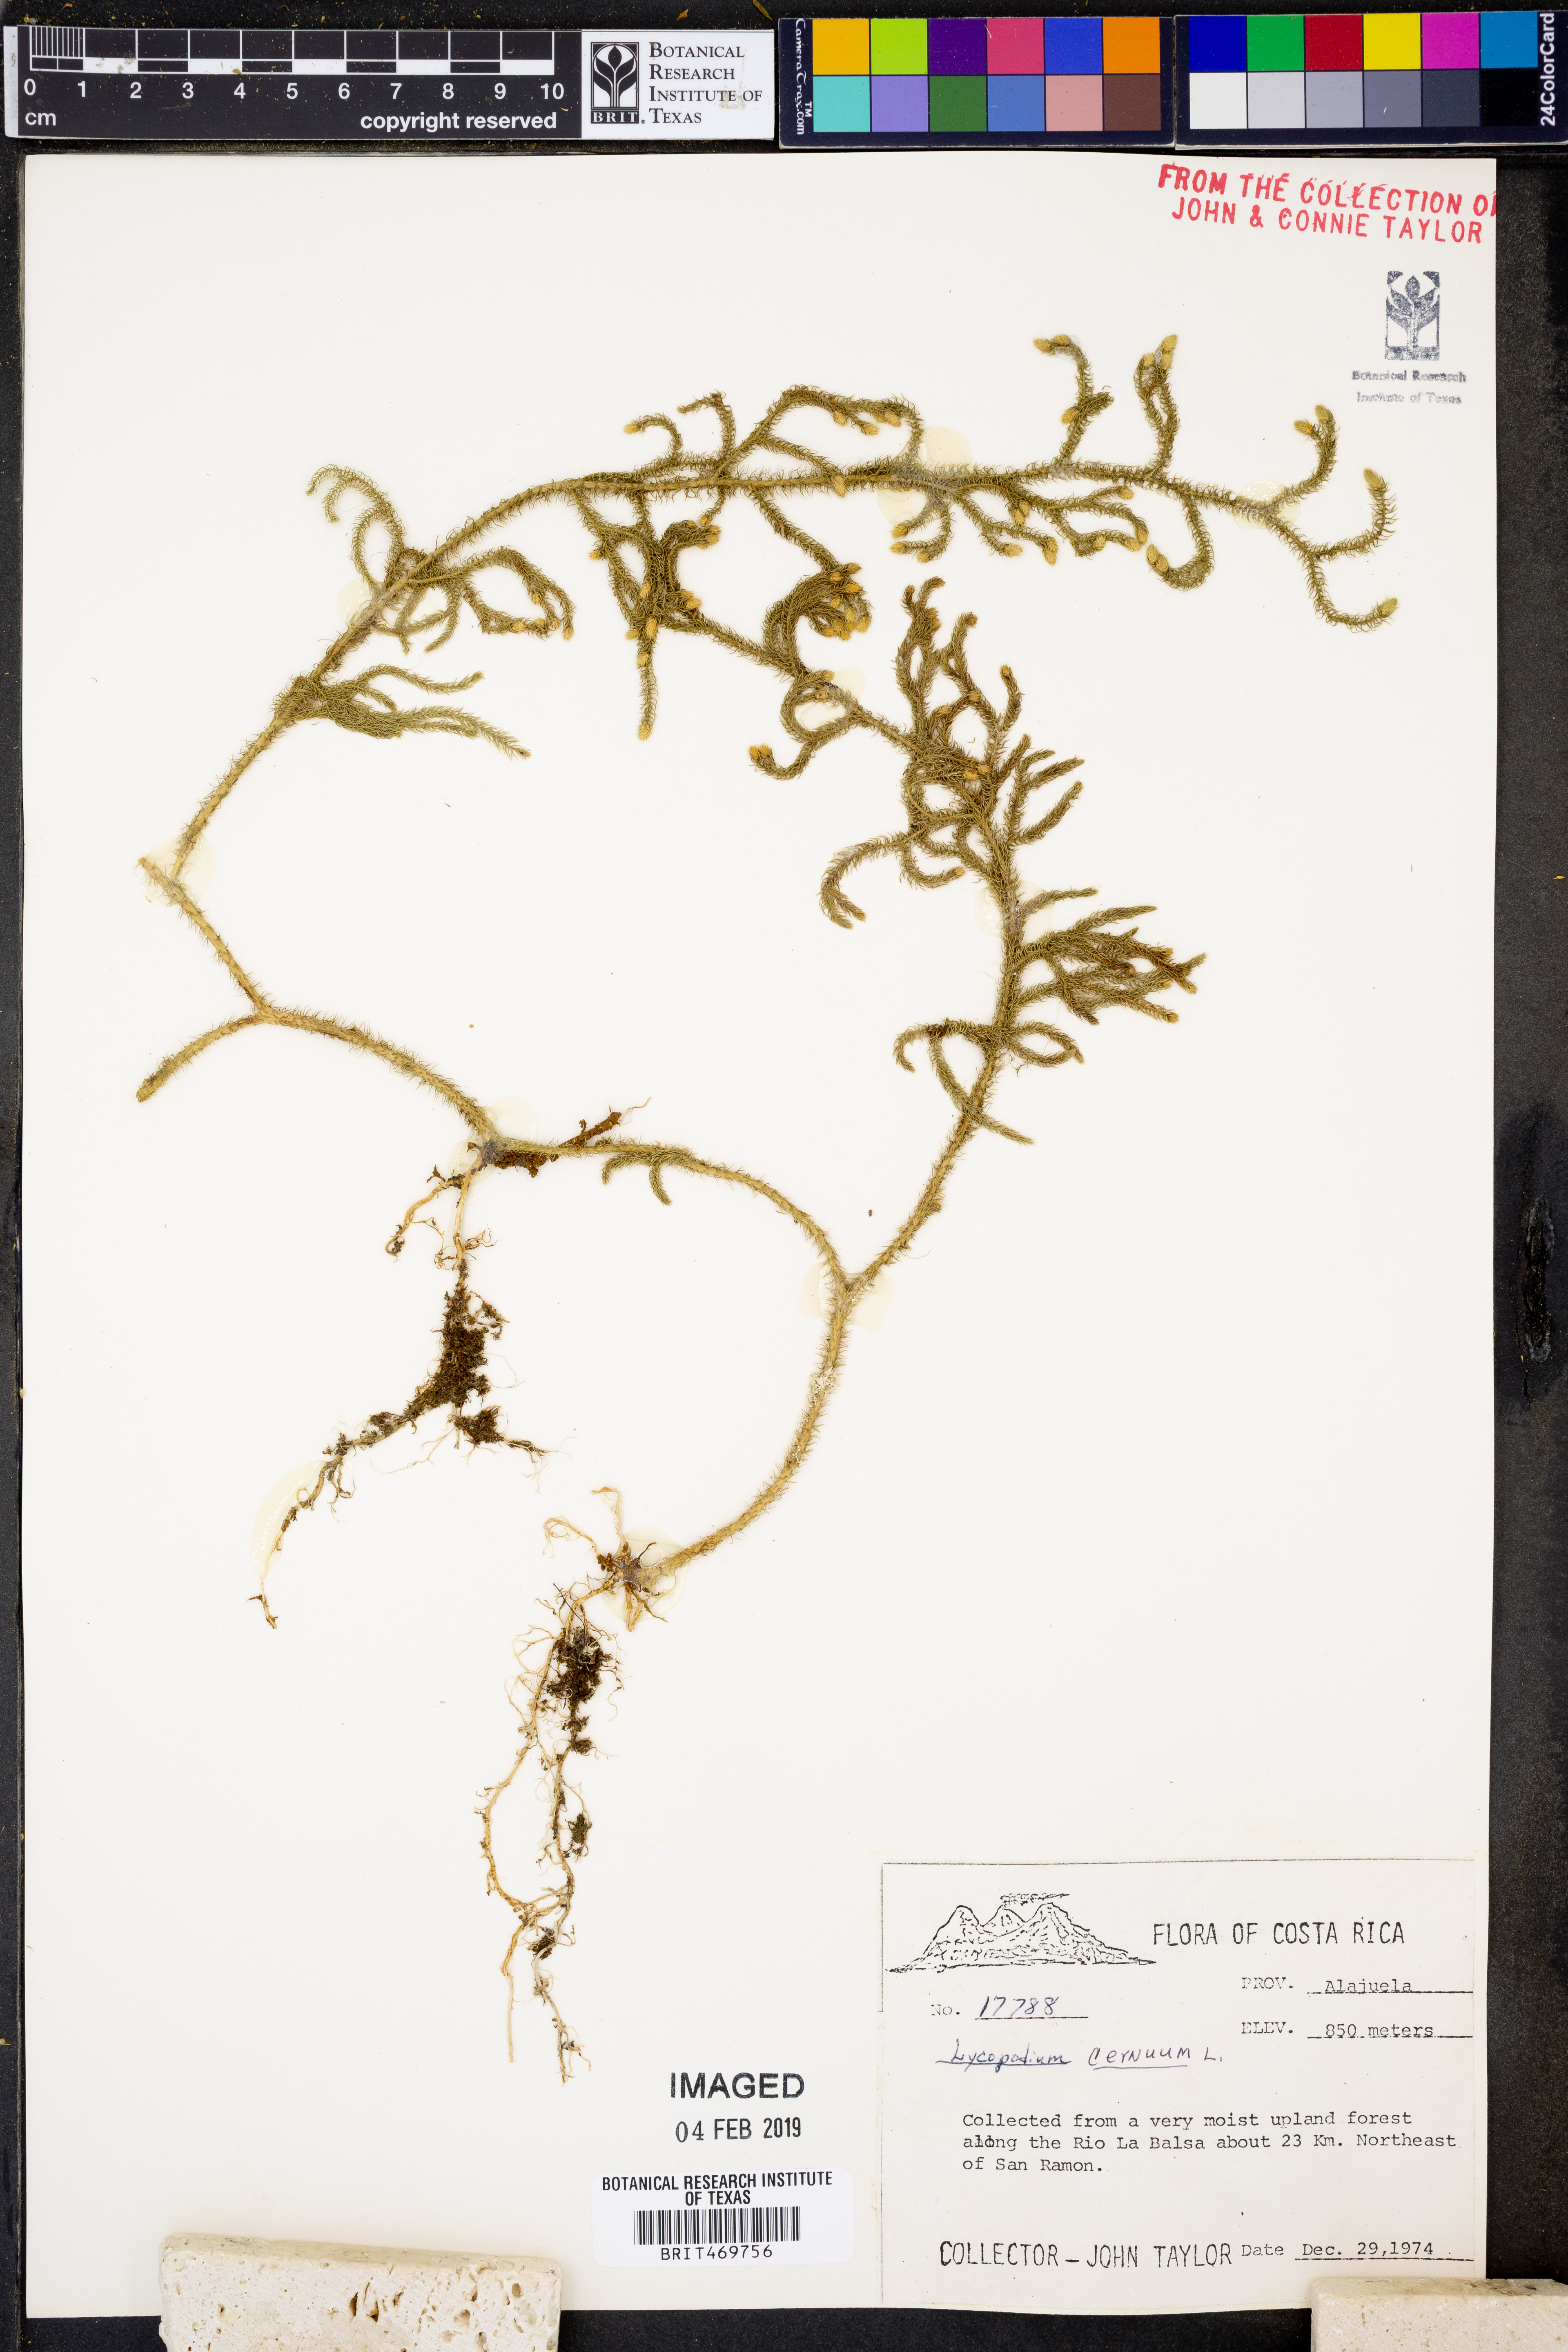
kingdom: Plantae
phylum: Tracheophyta
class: Lycopodiopsida
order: Lycopodiales
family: Lycopodiaceae
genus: Palhinhaea
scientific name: Palhinhaea cernua
